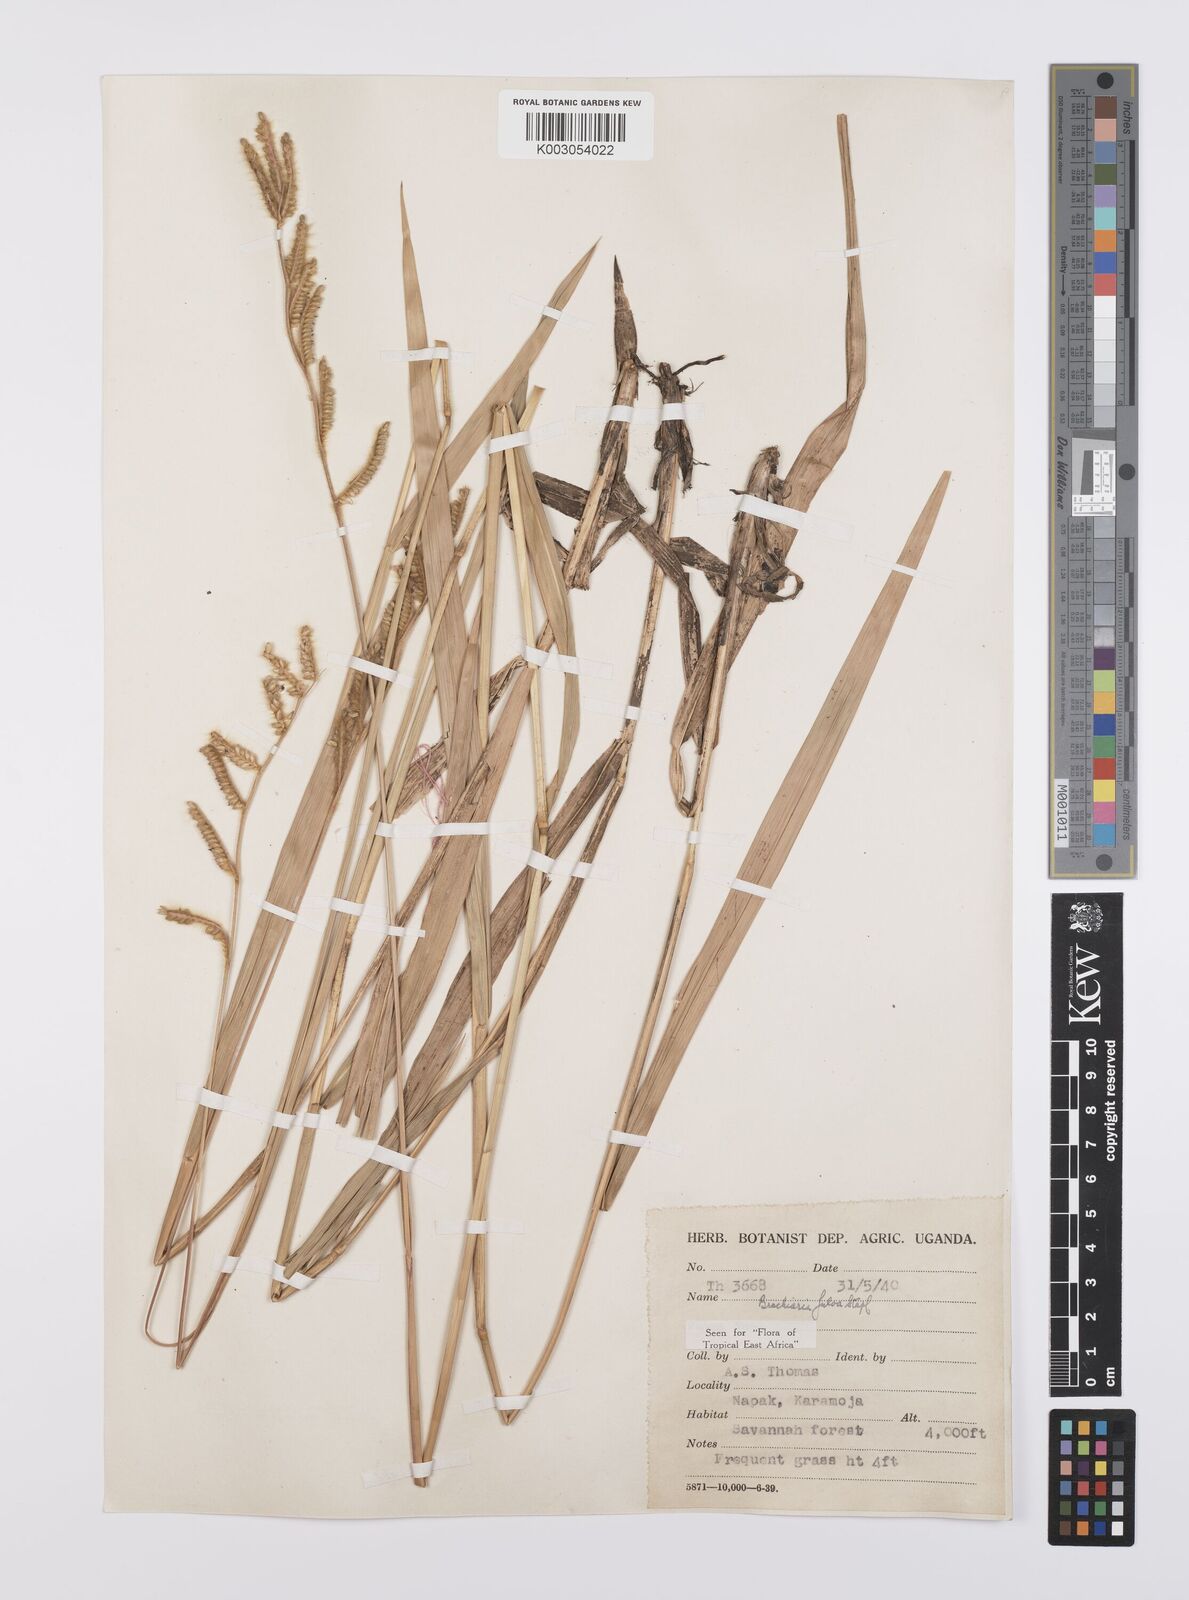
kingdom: Plantae
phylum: Tracheophyta
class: Liliopsida
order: Poales
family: Poaceae
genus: Urochloa
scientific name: Urochloa jubata
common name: Buffalograss
